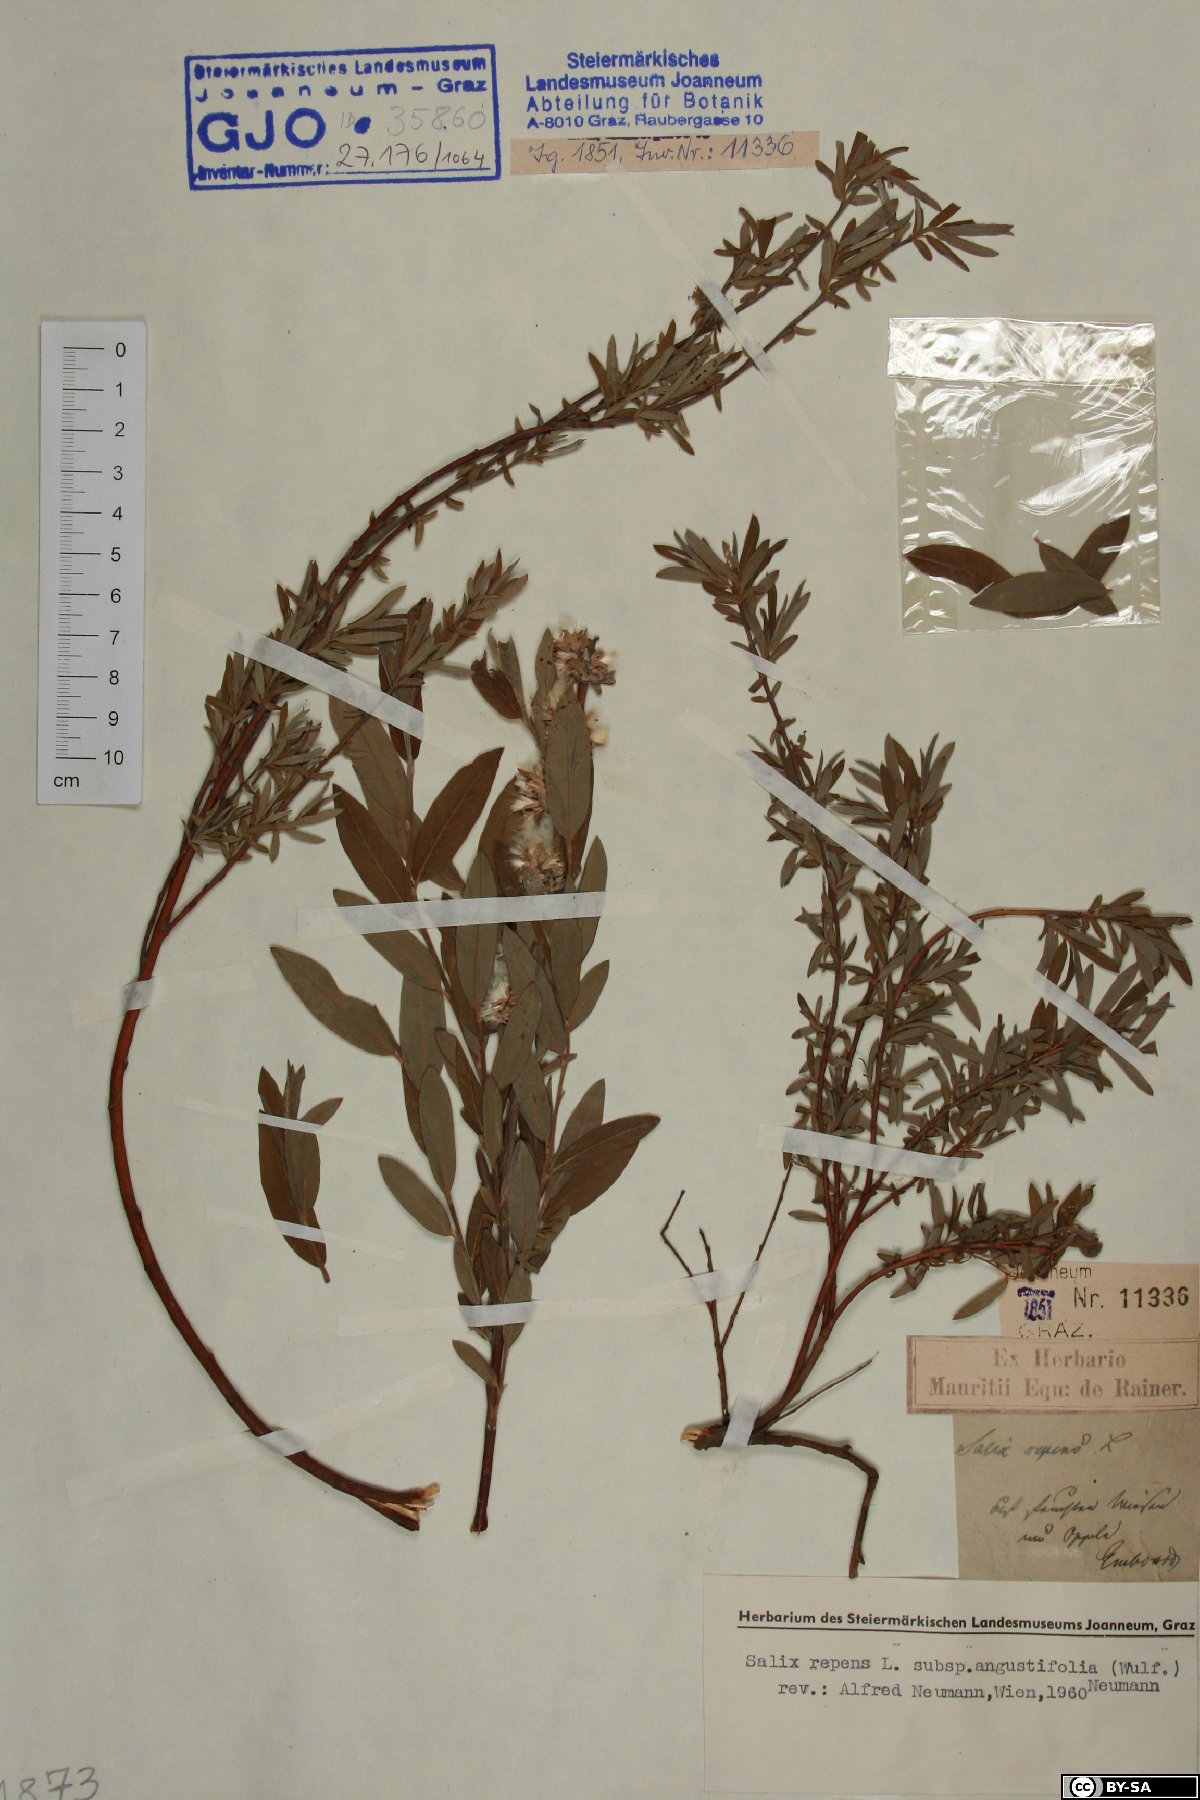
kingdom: Plantae
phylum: Tracheophyta
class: Magnoliopsida
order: Malpighiales
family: Salicaceae
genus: Salix
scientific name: Salix rosmarinifolia
